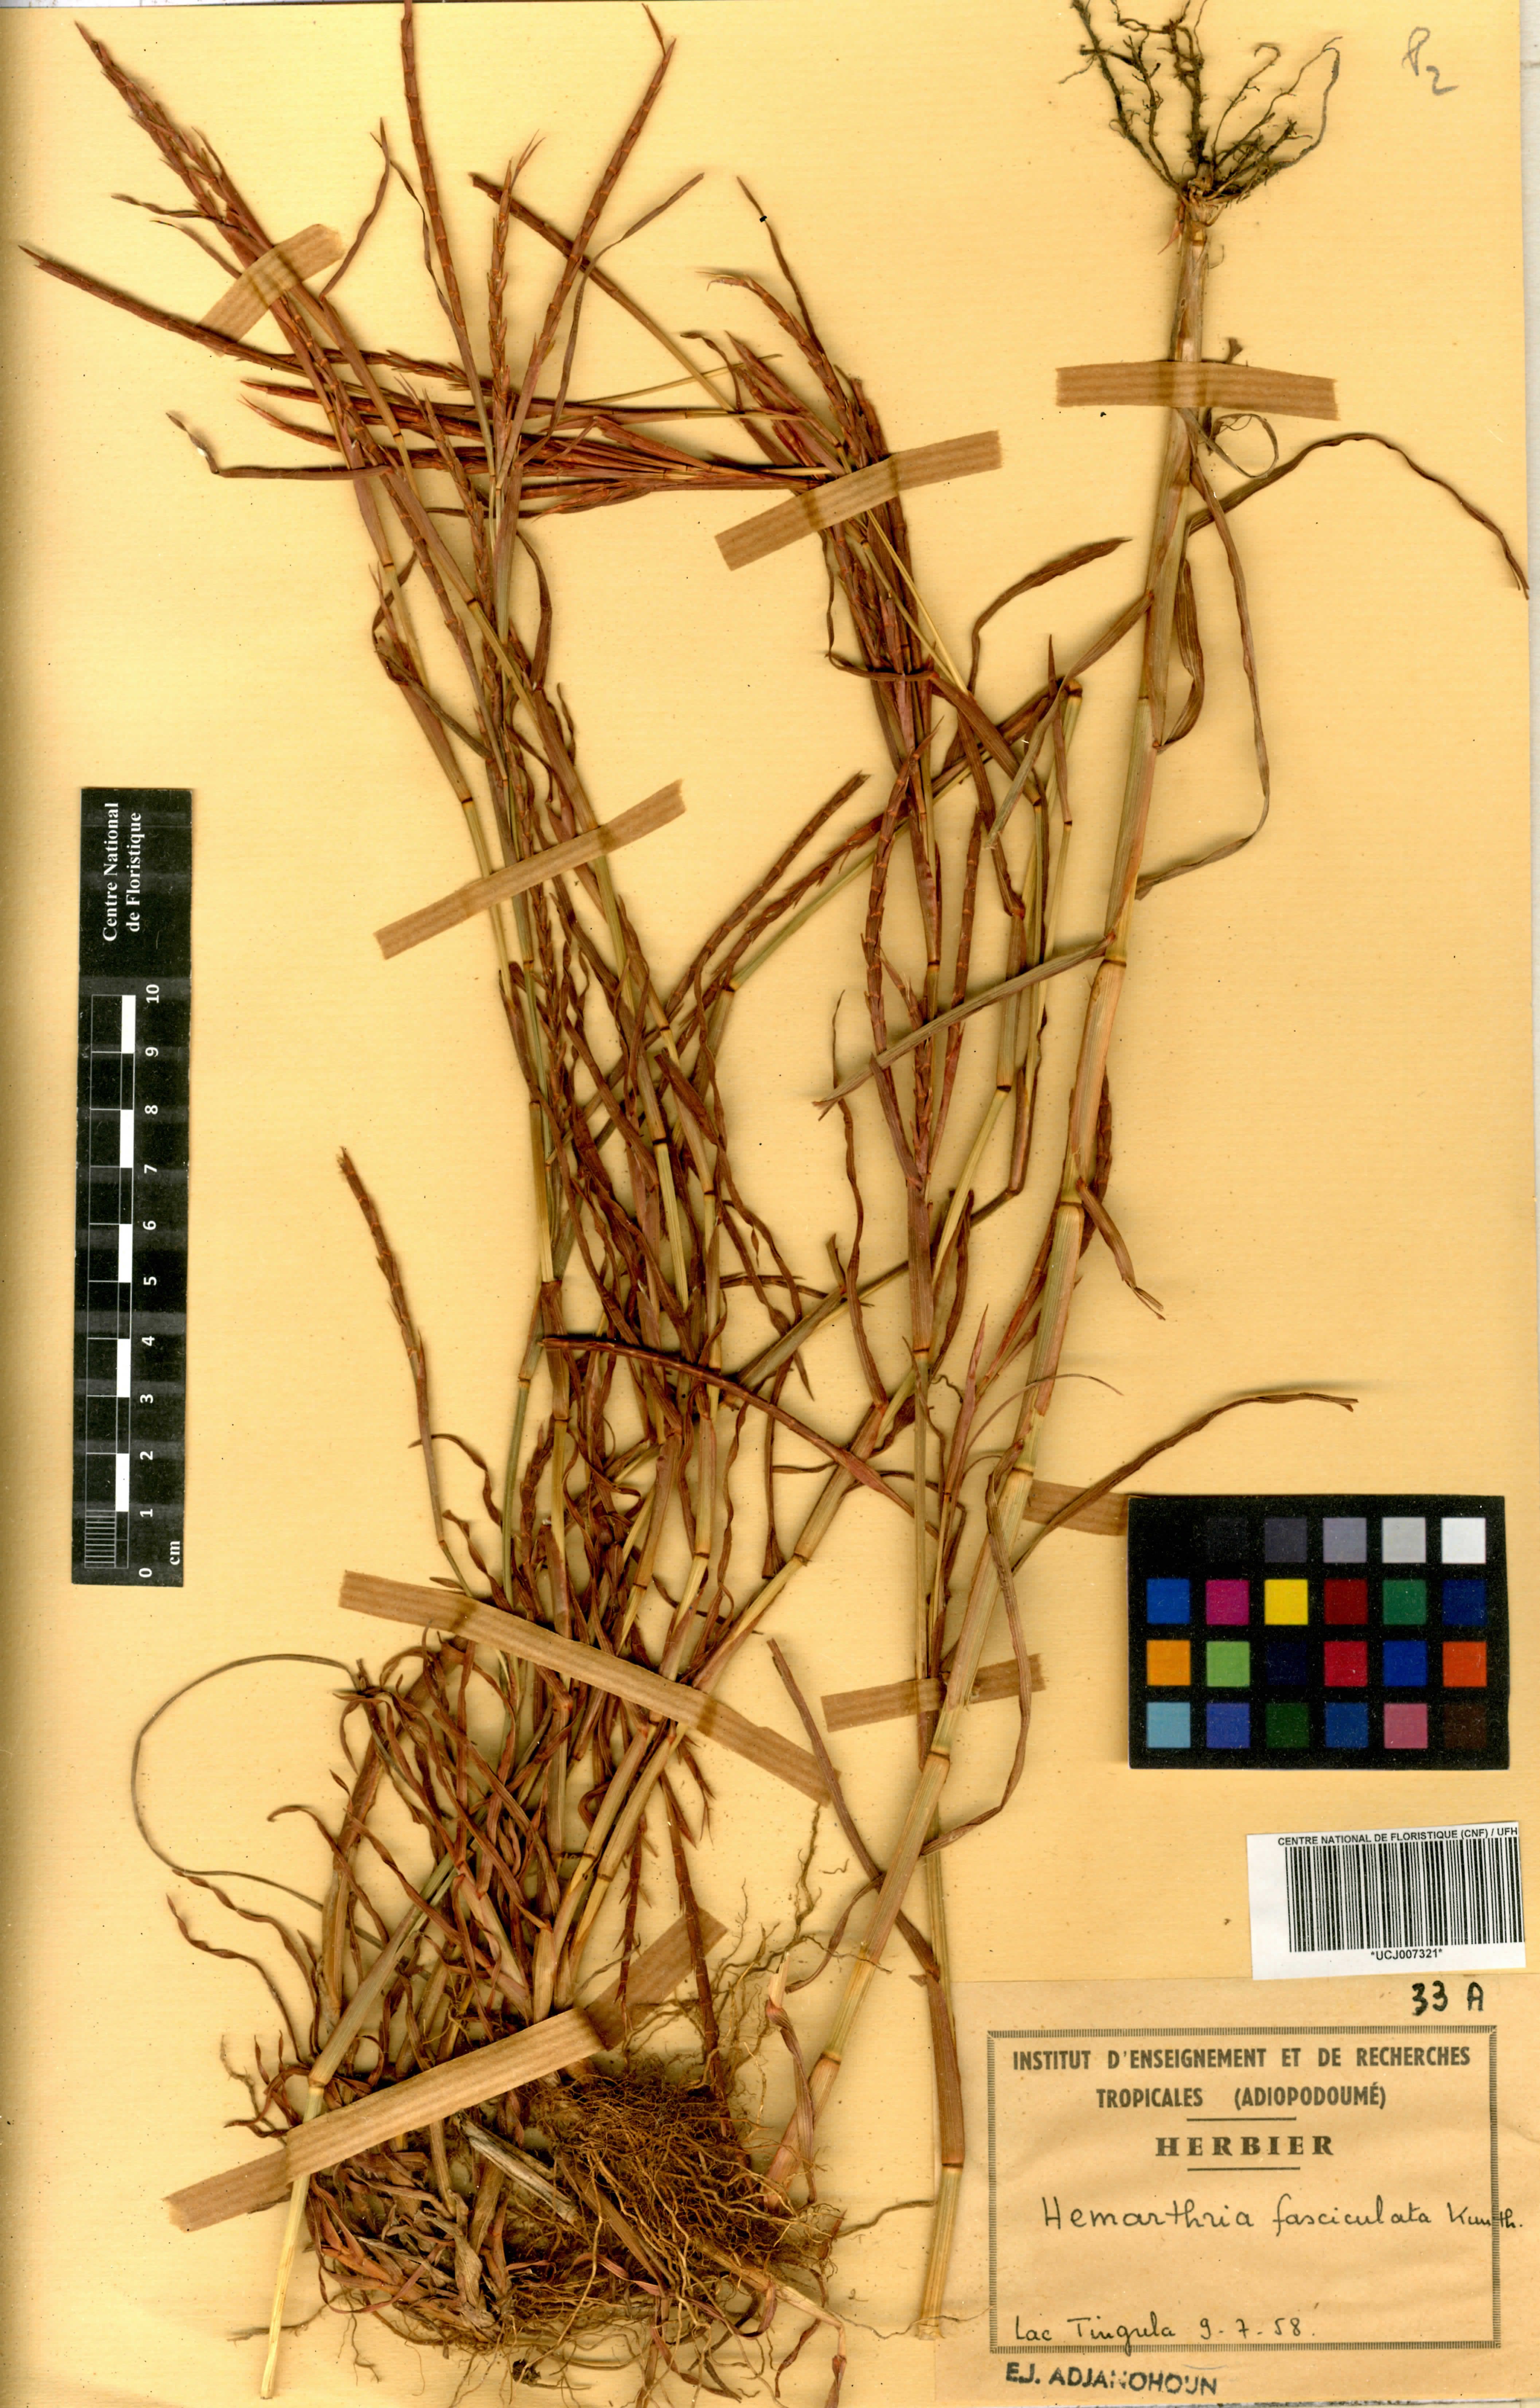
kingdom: Plantae
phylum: Tracheophyta
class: Liliopsida
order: Poales
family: Poaceae
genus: Hemarthria
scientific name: Hemarthria altissima
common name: African jointgrass
